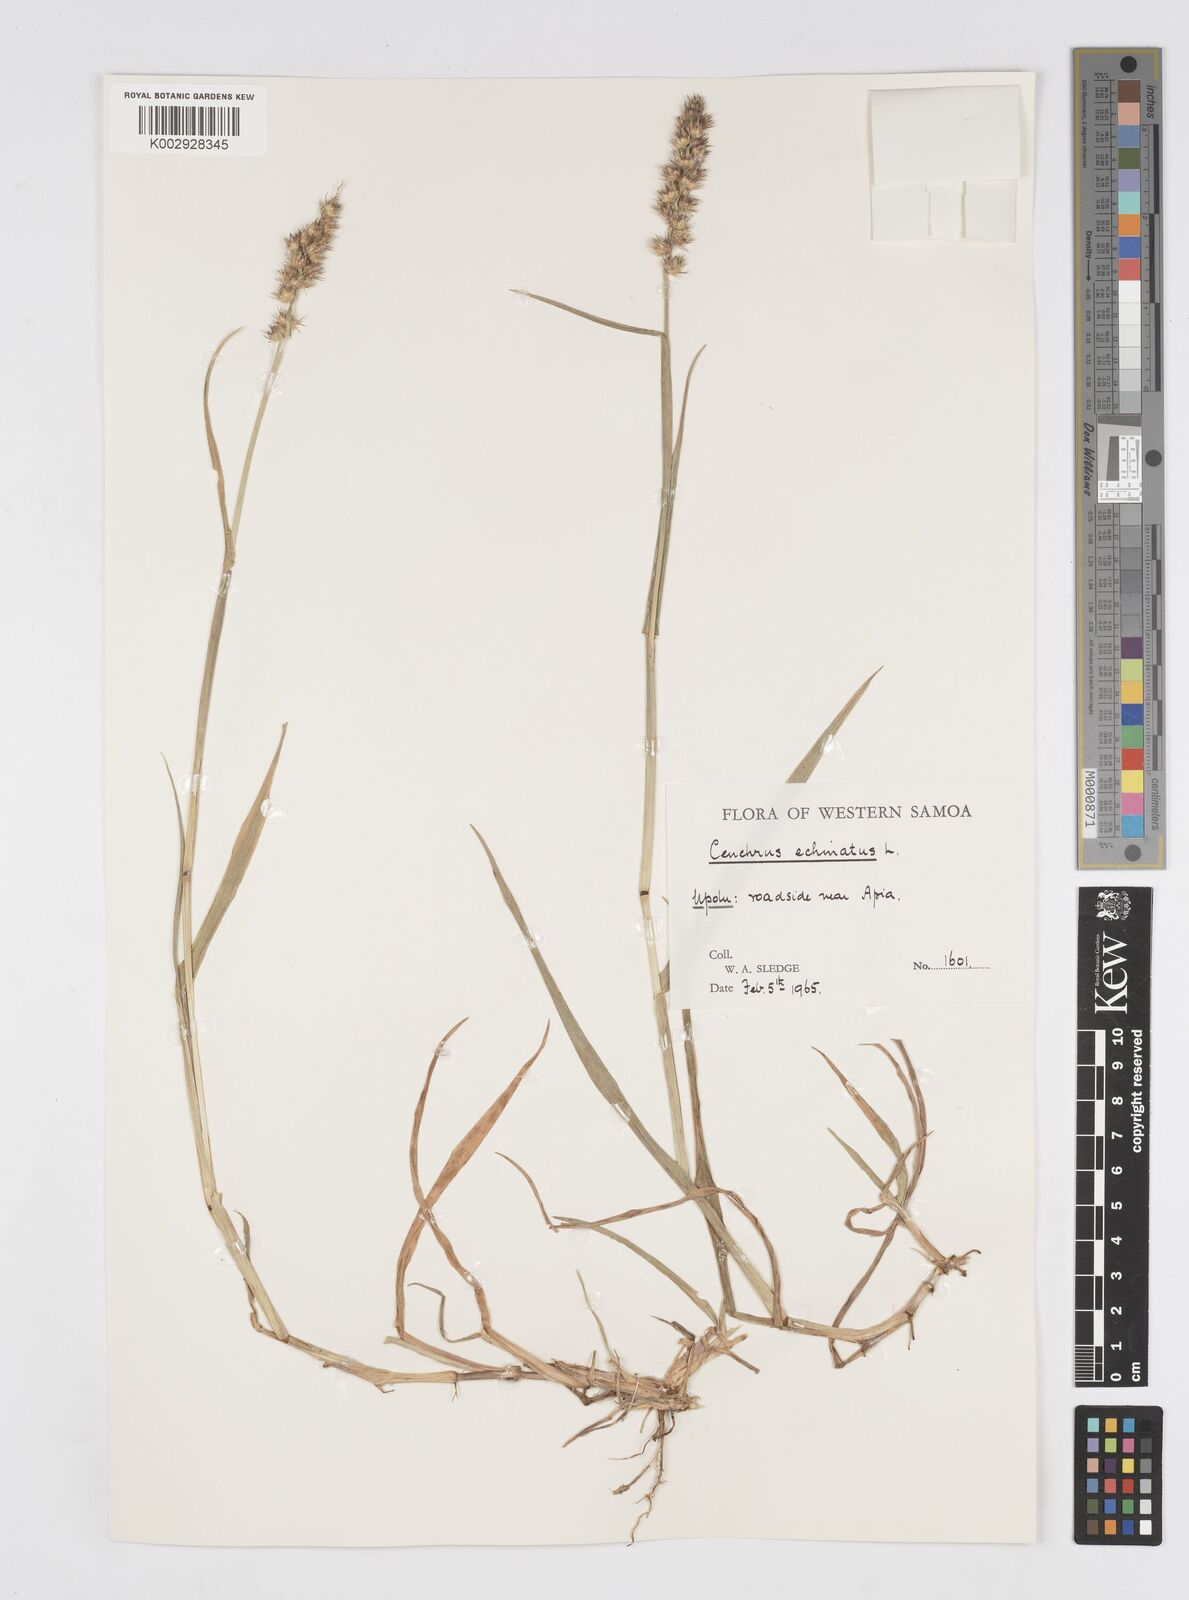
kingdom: Plantae
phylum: Tracheophyta
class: Liliopsida
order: Poales
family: Poaceae
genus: Cenchrus
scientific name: Cenchrus echinatus
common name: Southern sandbur
